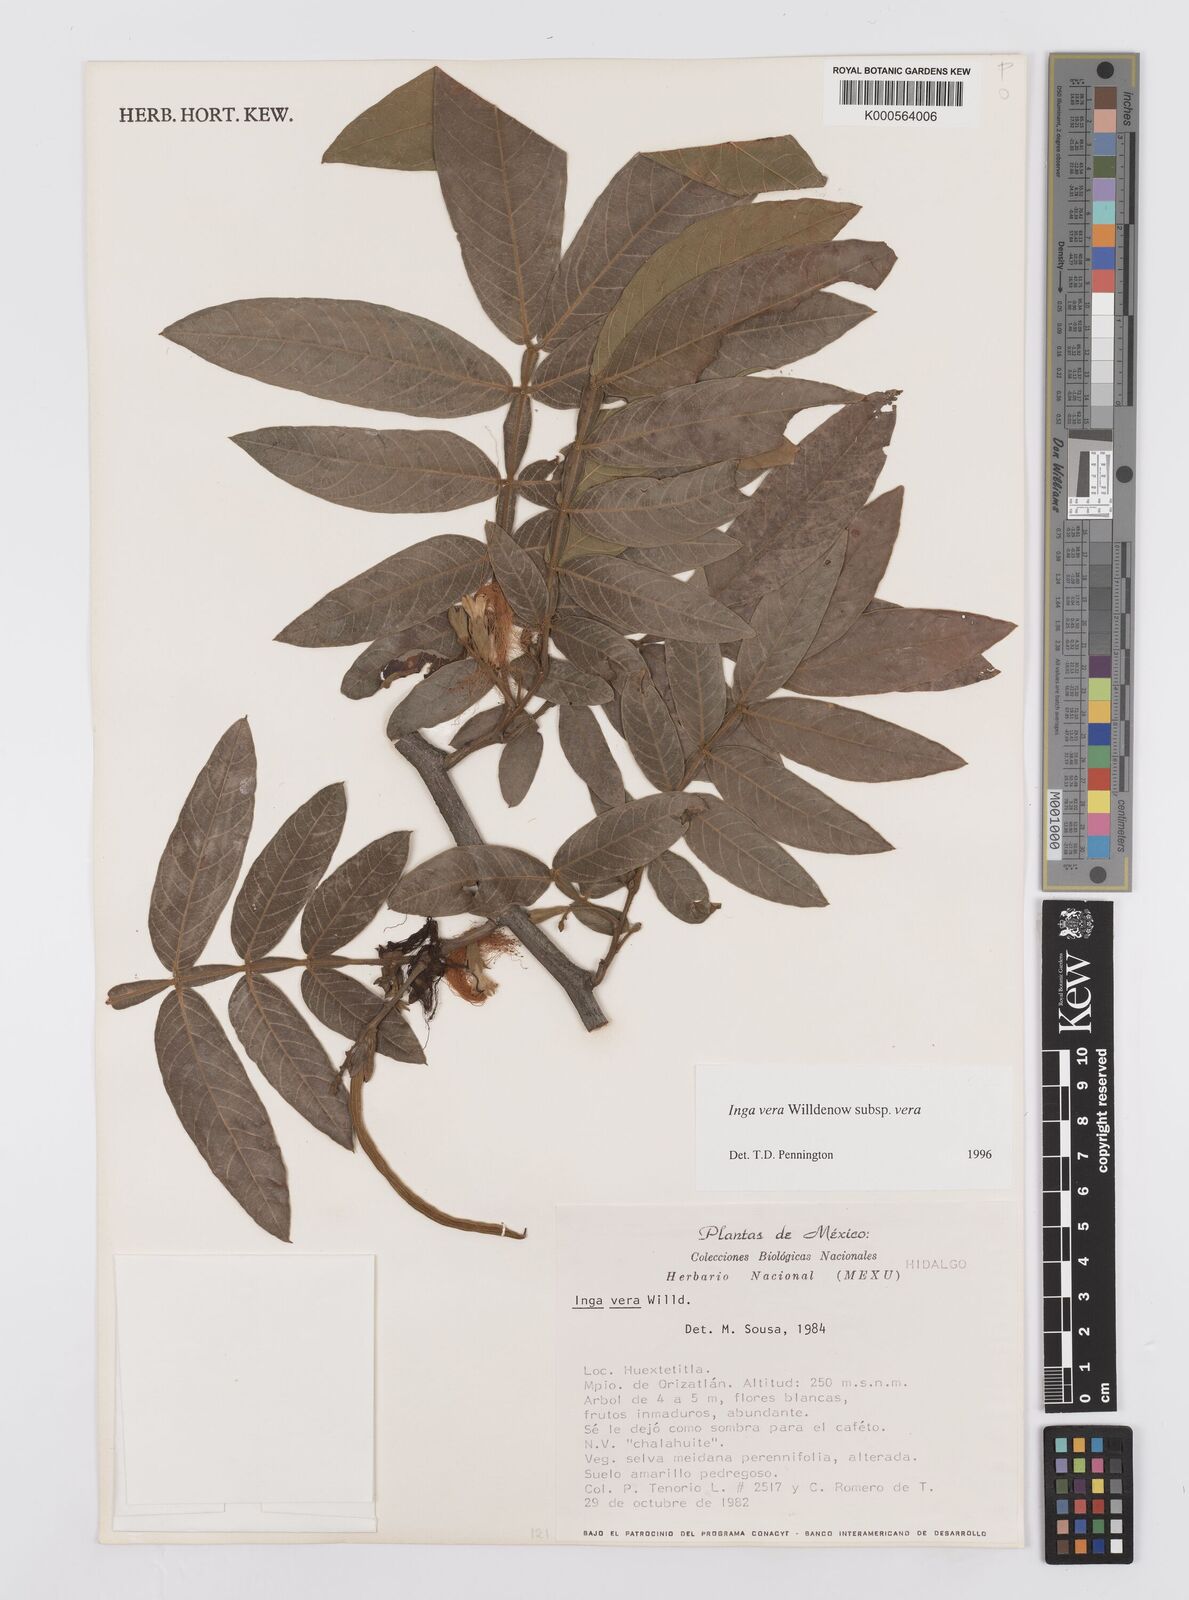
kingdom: Plantae
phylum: Tracheophyta
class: Magnoliopsida
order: Fabales
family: Fabaceae
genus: Inga
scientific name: Inga vera
